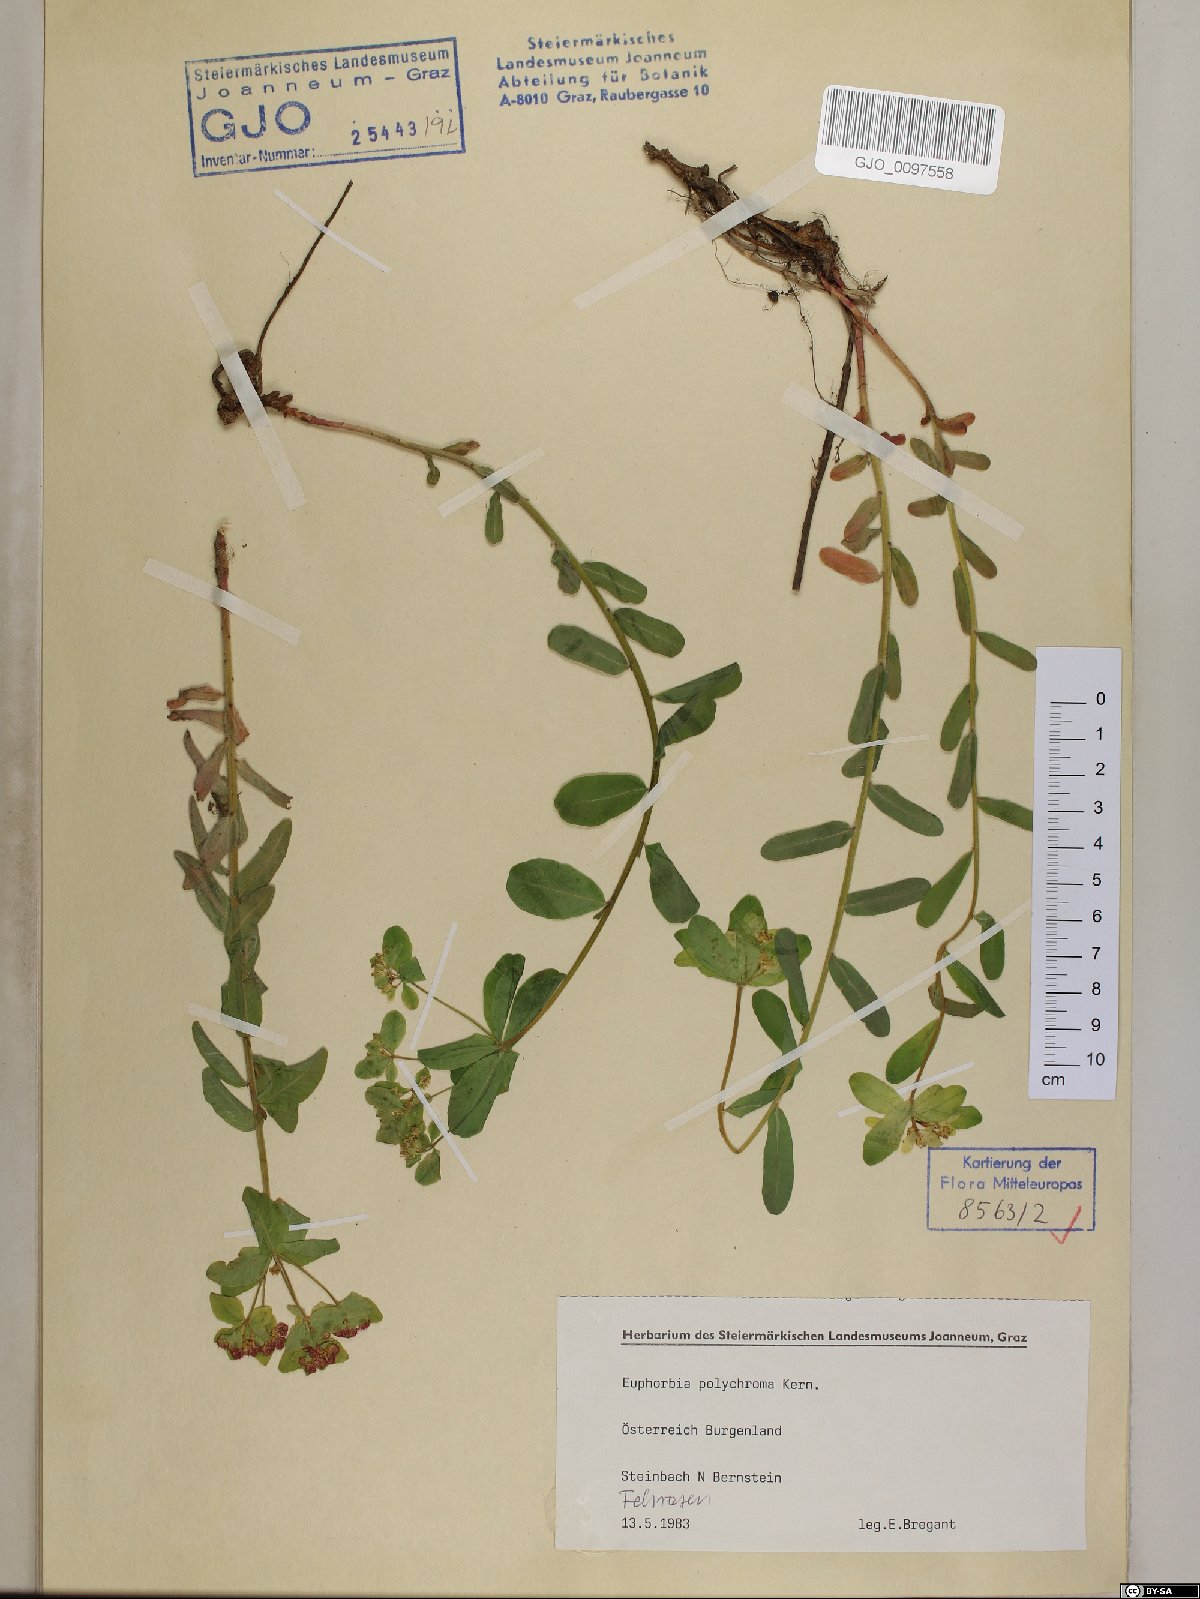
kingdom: Plantae
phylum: Tracheophyta
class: Magnoliopsida
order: Malpighiales
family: Euphorbiaceae
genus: Euphorbia
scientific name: Euphorbia epithymoides
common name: Cushion spurge
